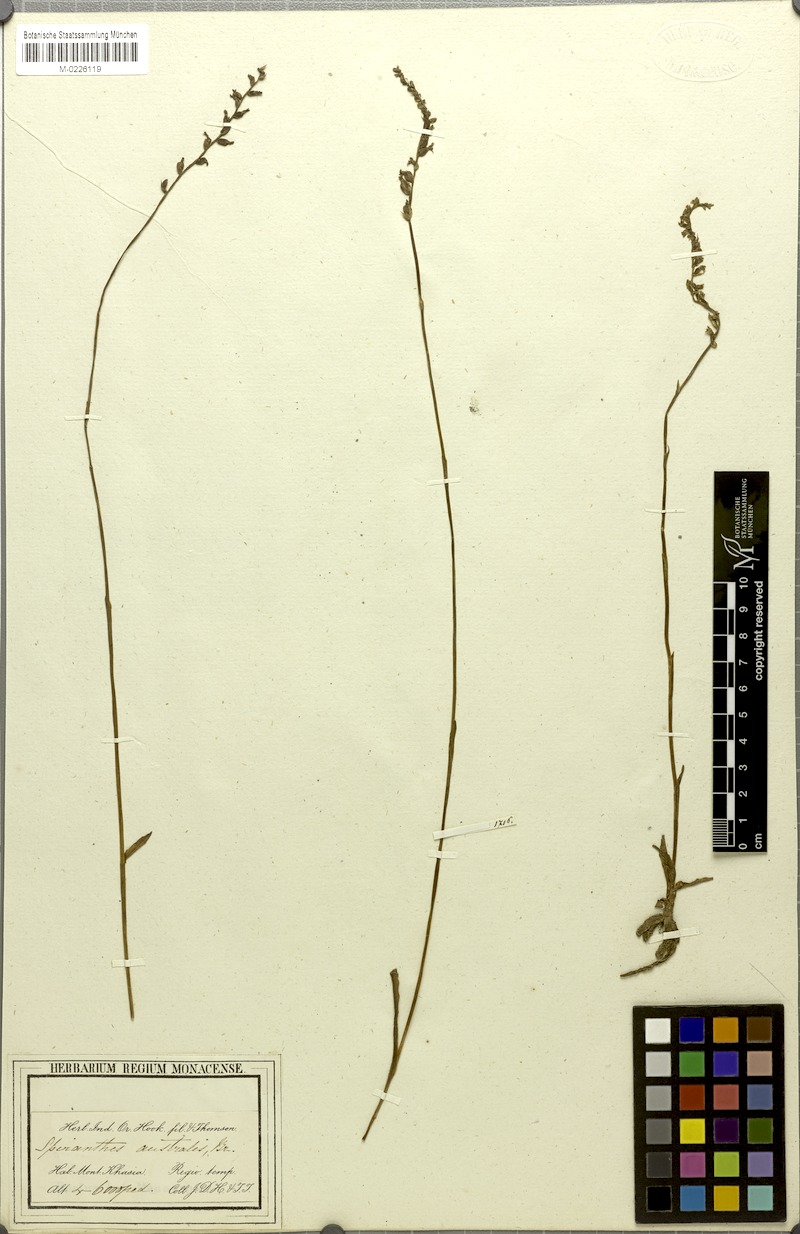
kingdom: Plantae
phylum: Tracheophyta
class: Liliopsida
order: Asparagales
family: Orchidaceae
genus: Spiranthes
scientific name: Spiranthes sinensis
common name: Chinese spiranthes
